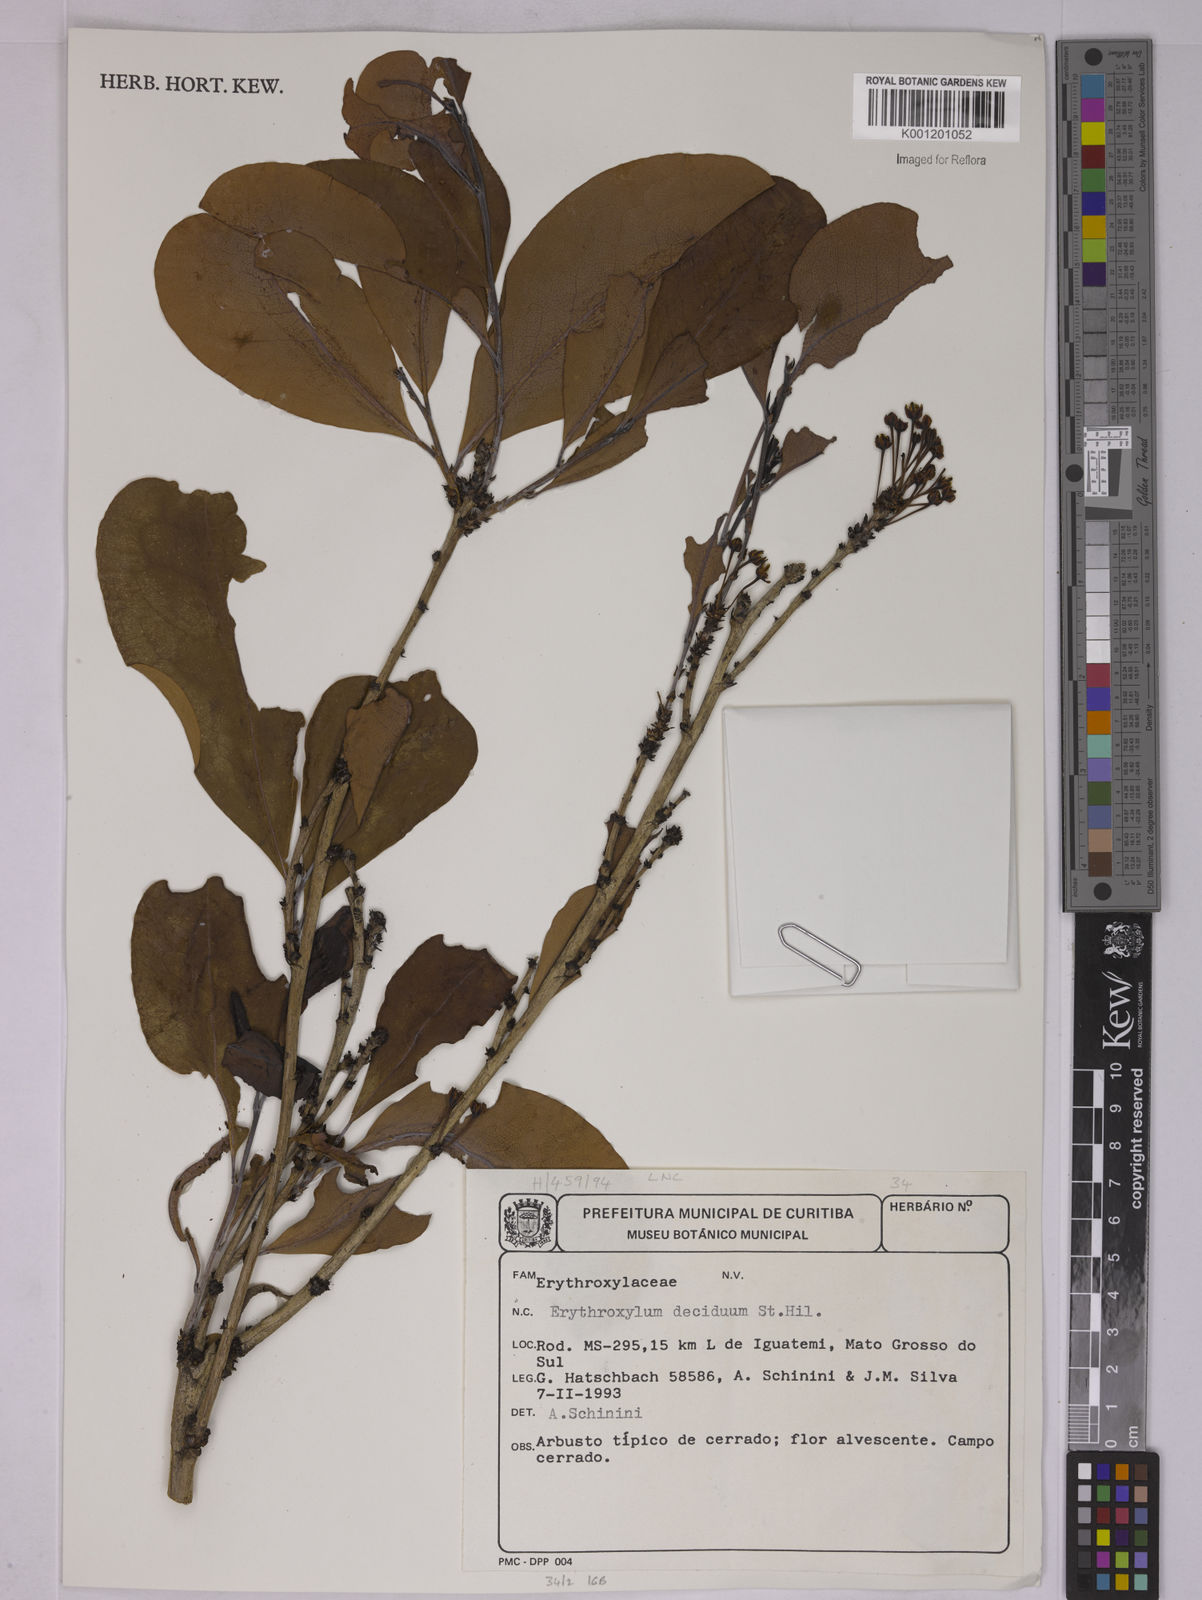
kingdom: Plantae
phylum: Tracheophyta
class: Magnoliopsida
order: Malpighiales
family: Erythroxylaceae
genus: Erythroxylum
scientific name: Erythroxylum deciduum
